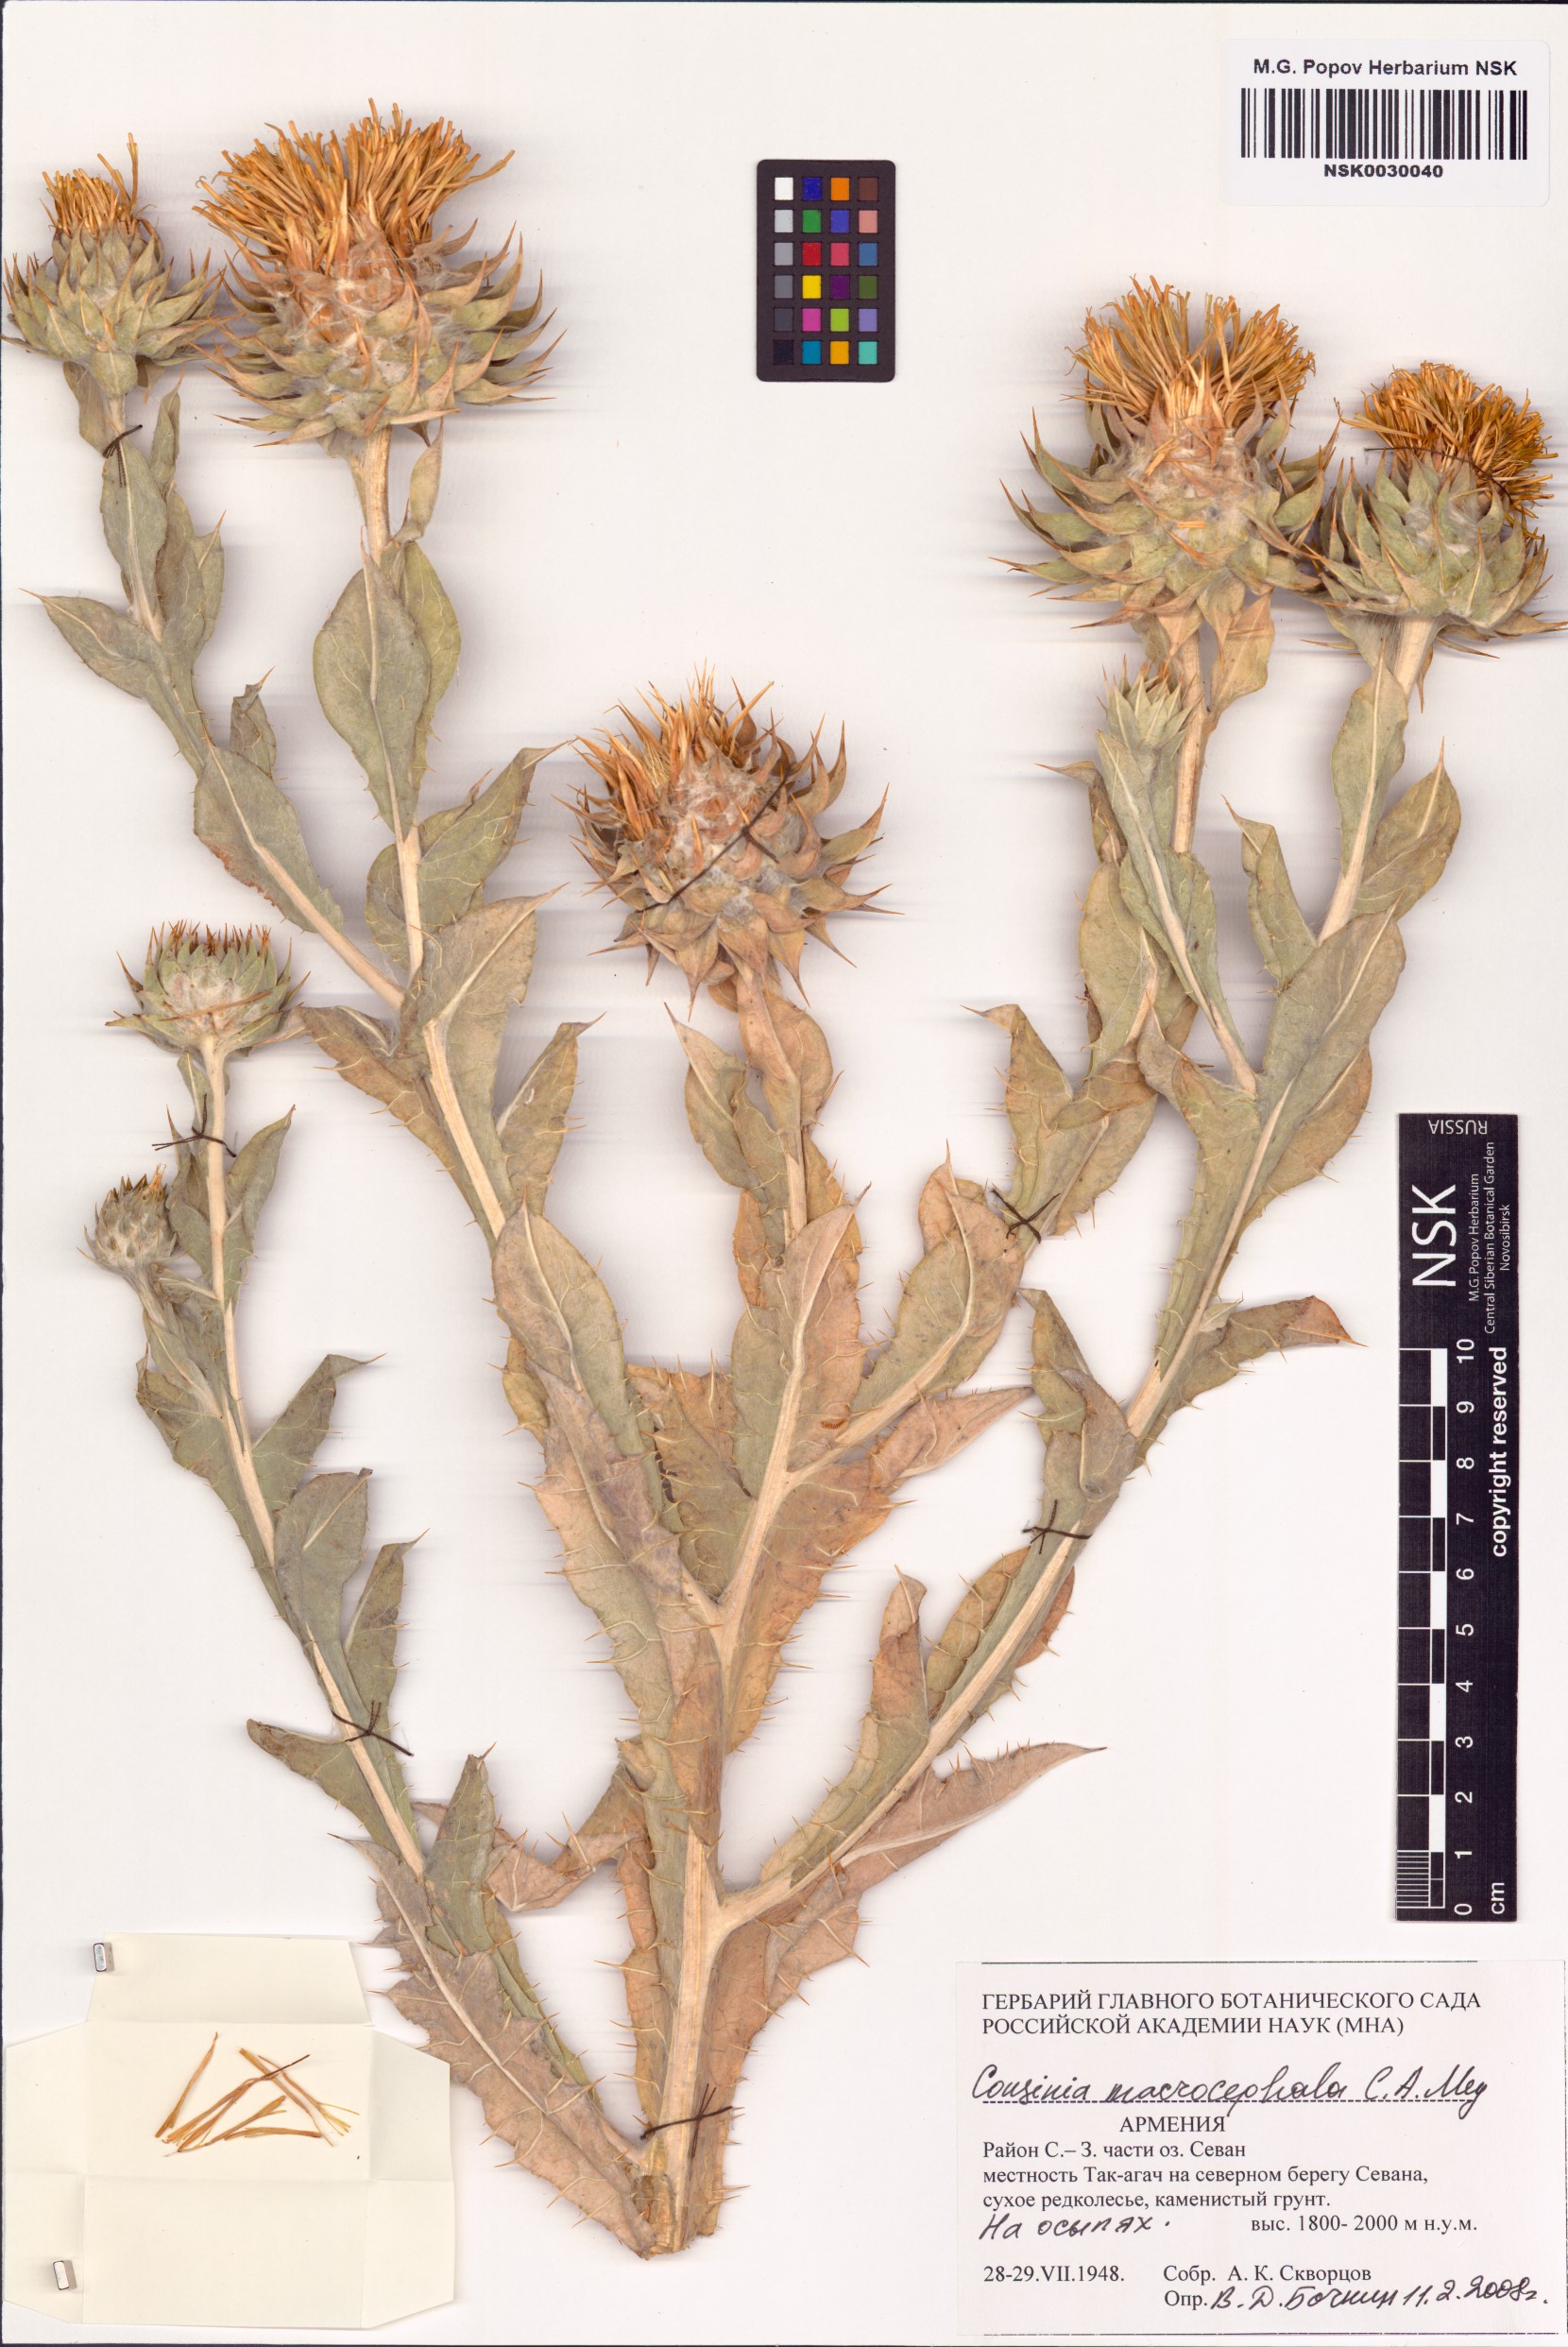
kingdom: Plantae
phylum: Tracheophyta
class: Magnoliopsida
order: Asterales
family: Asteraceae
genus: Cousinia
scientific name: Cousinia macrocephala
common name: Macrocephalous cousinia
